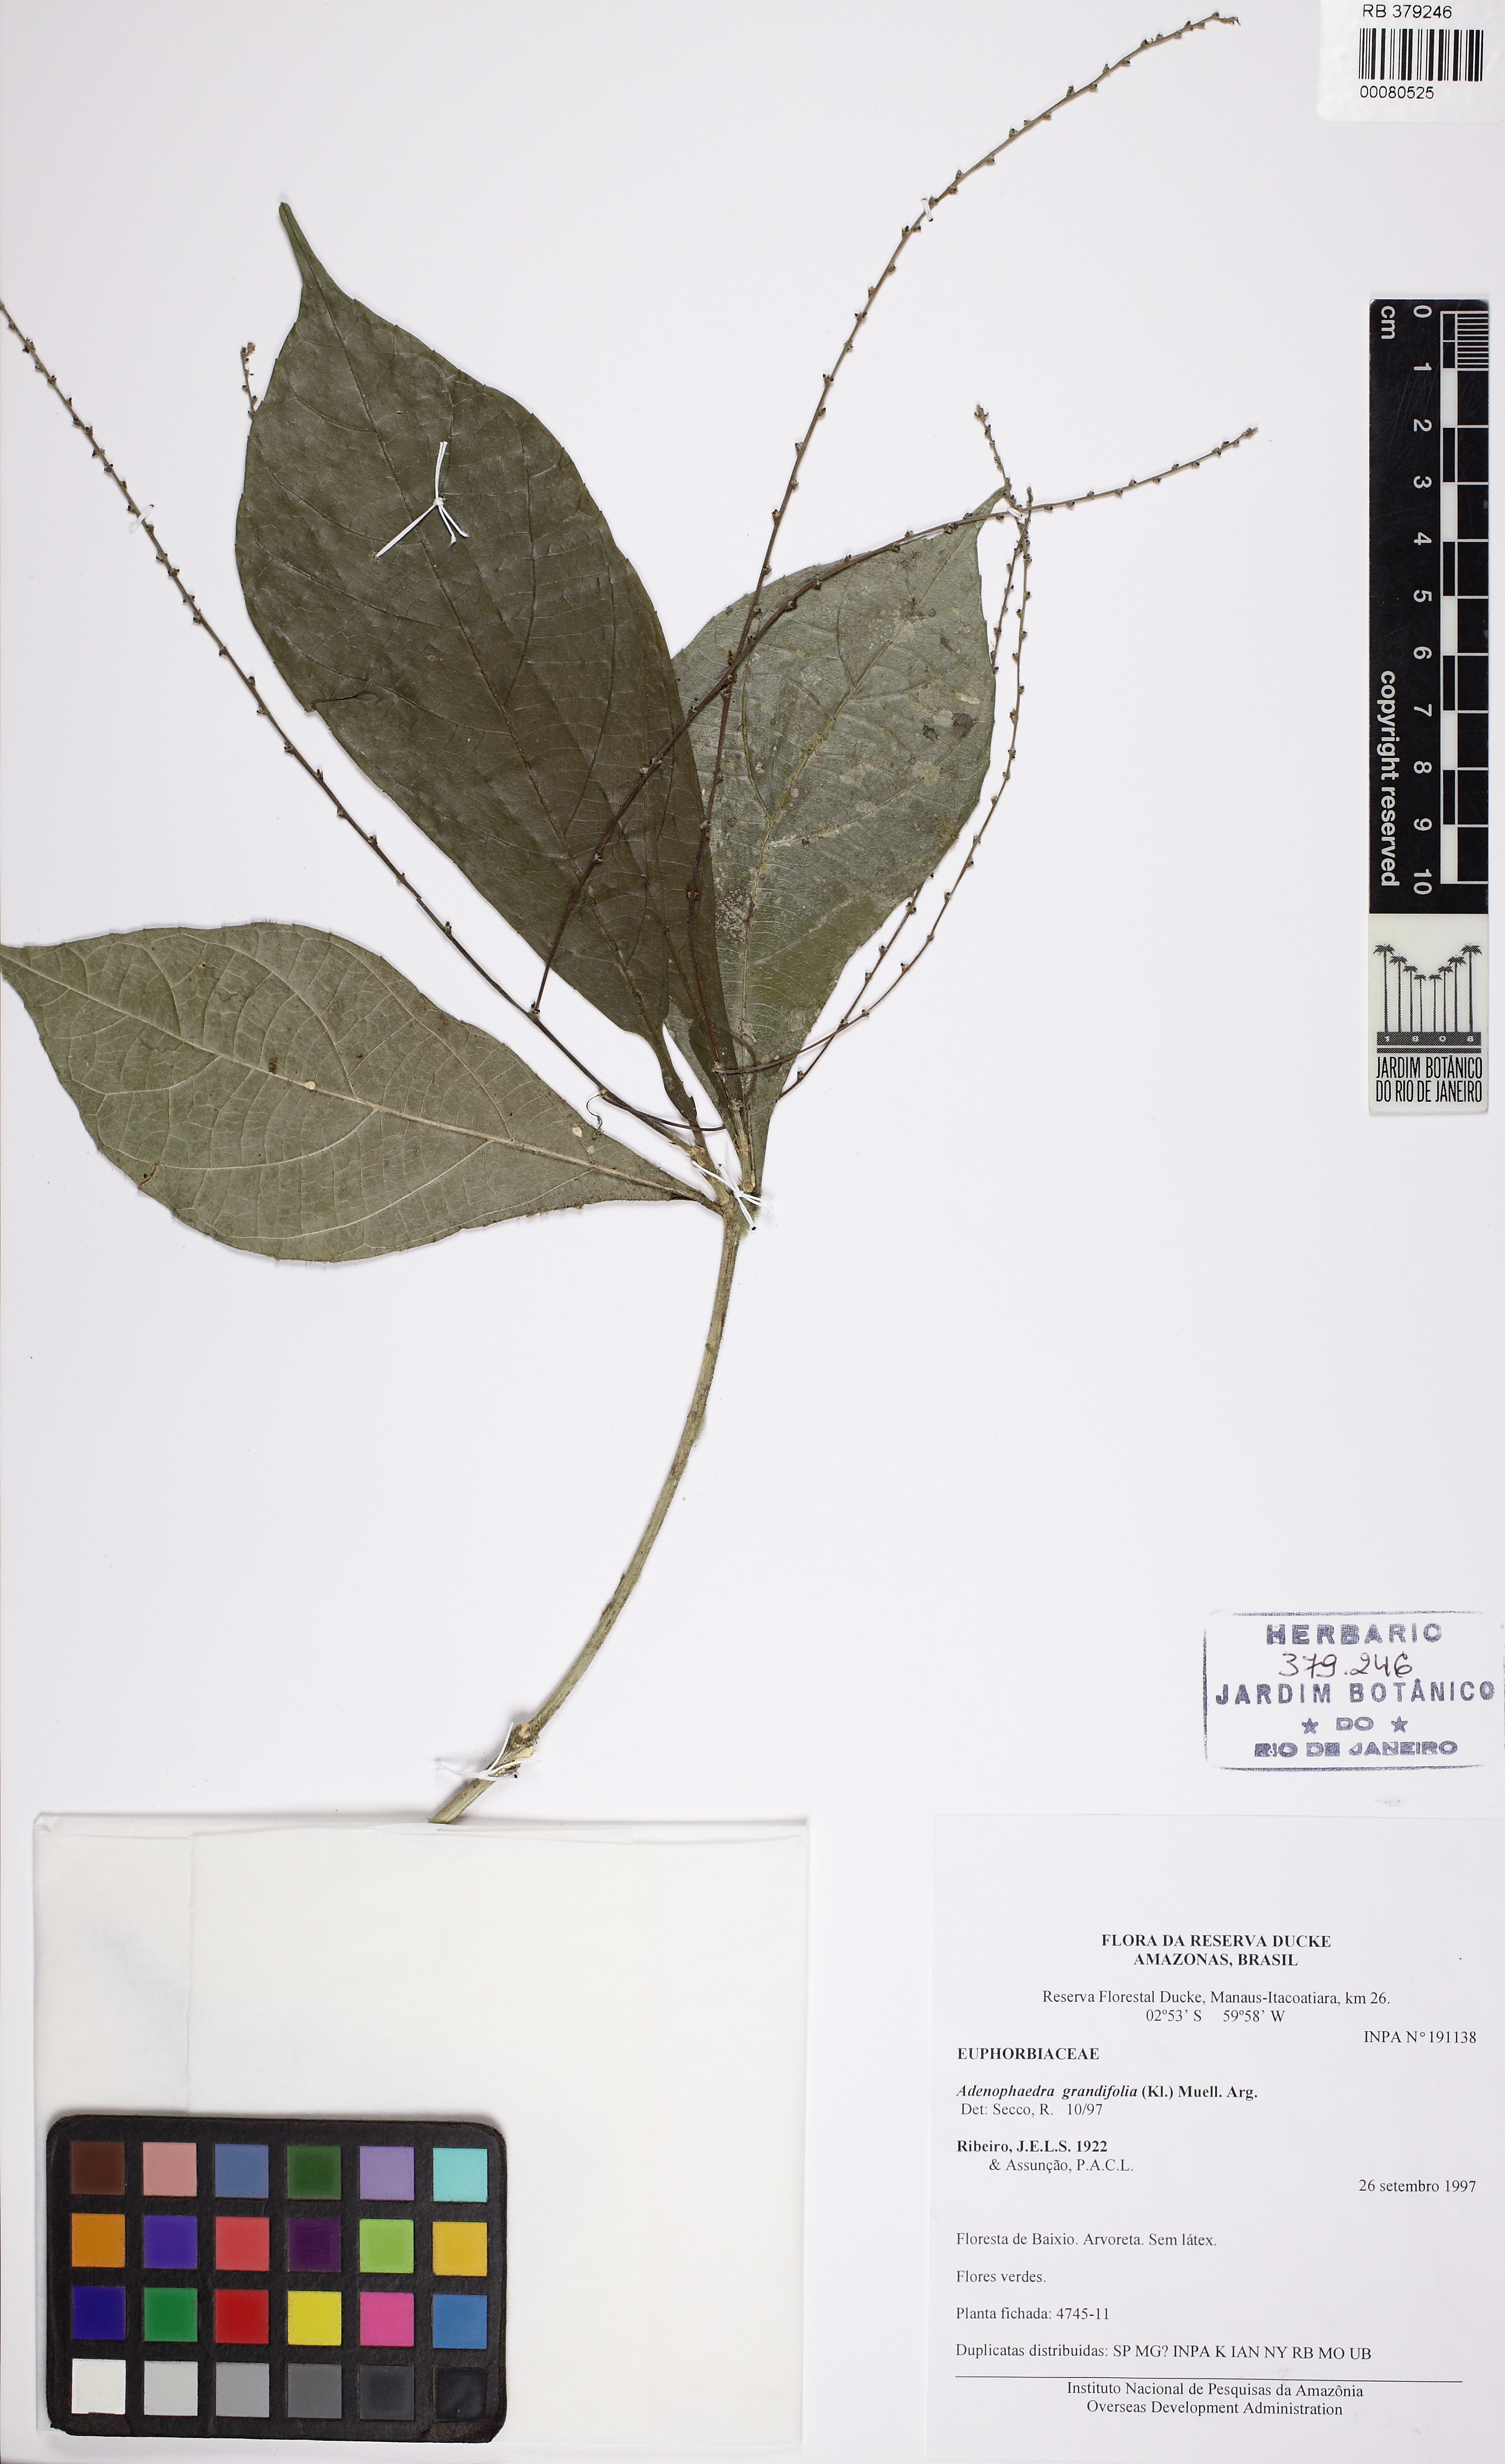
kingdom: Plantae
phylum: Tracheophyta
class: Magnoliopsida
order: Malpighiales
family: Euphorbiaceae
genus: Adenophaedra
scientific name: Adenophaedra grandiflora
